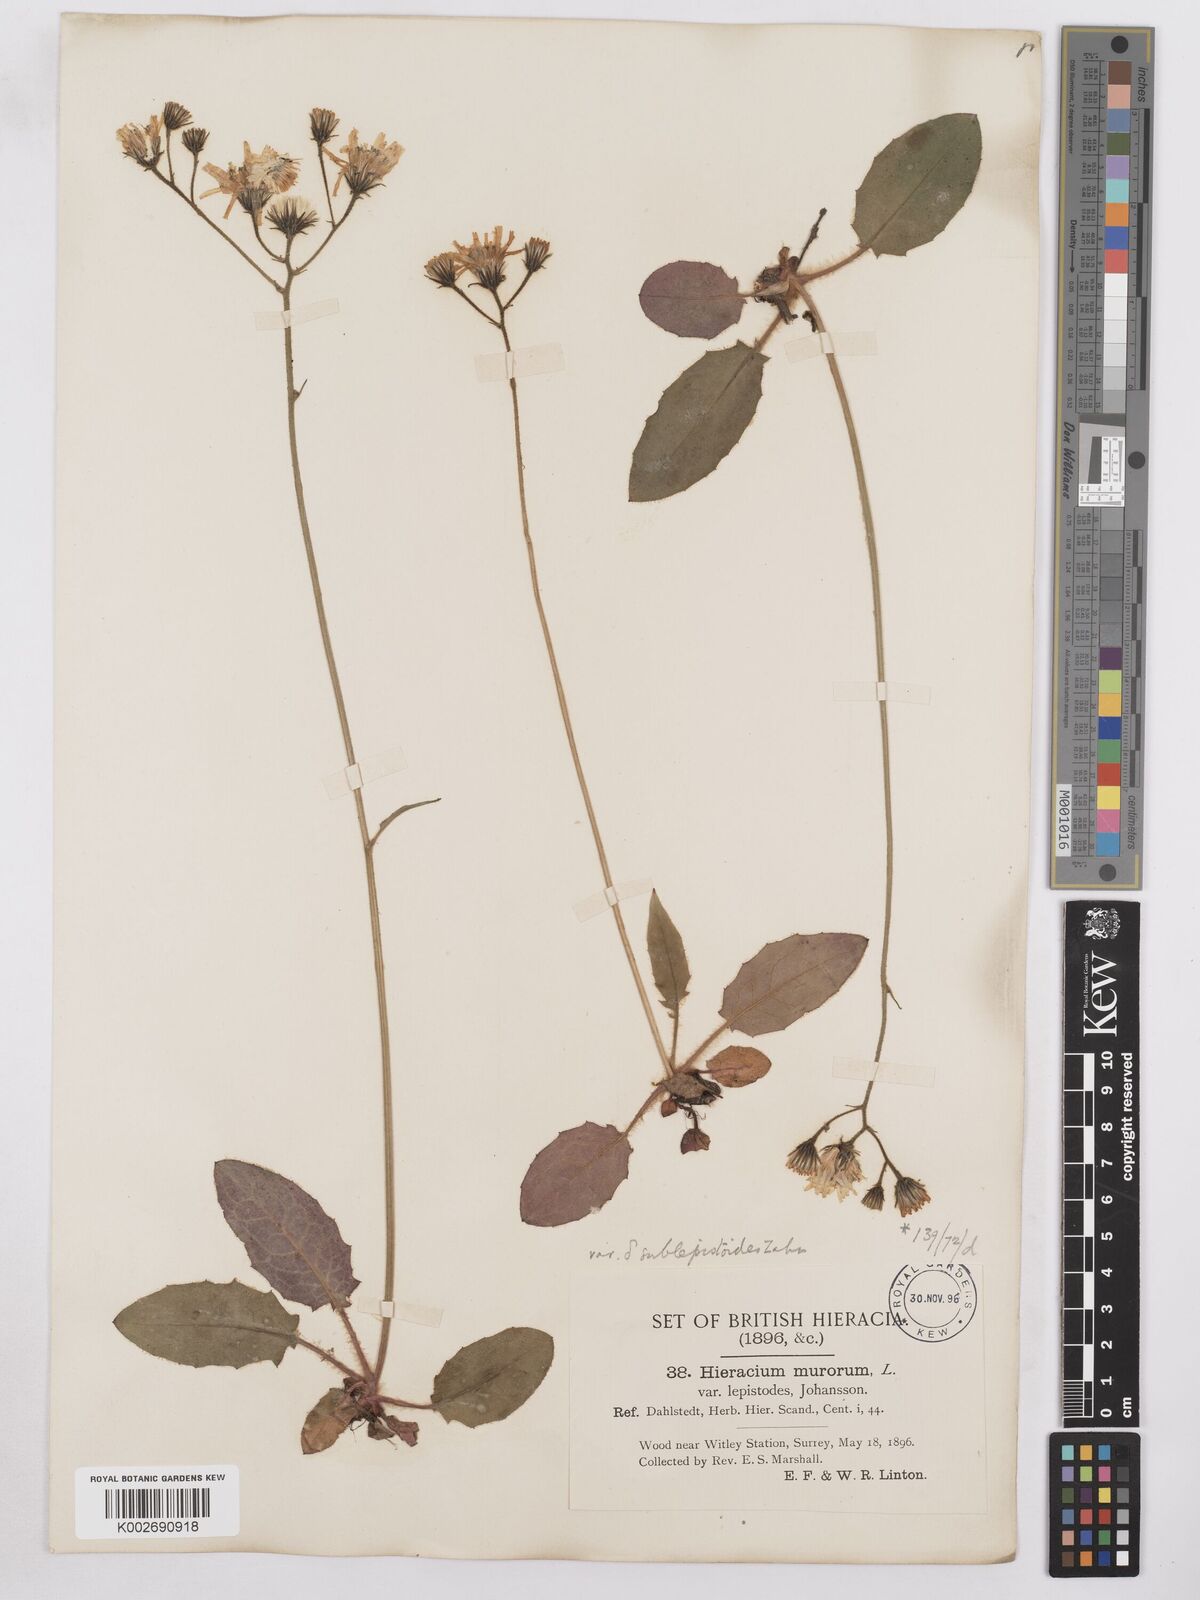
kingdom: Plantae
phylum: Tracheophyta
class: Magnoliopsida
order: Asterales
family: Asteraceae
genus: Hieracium
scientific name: Hieracium murorum
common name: Wall hawkweed
